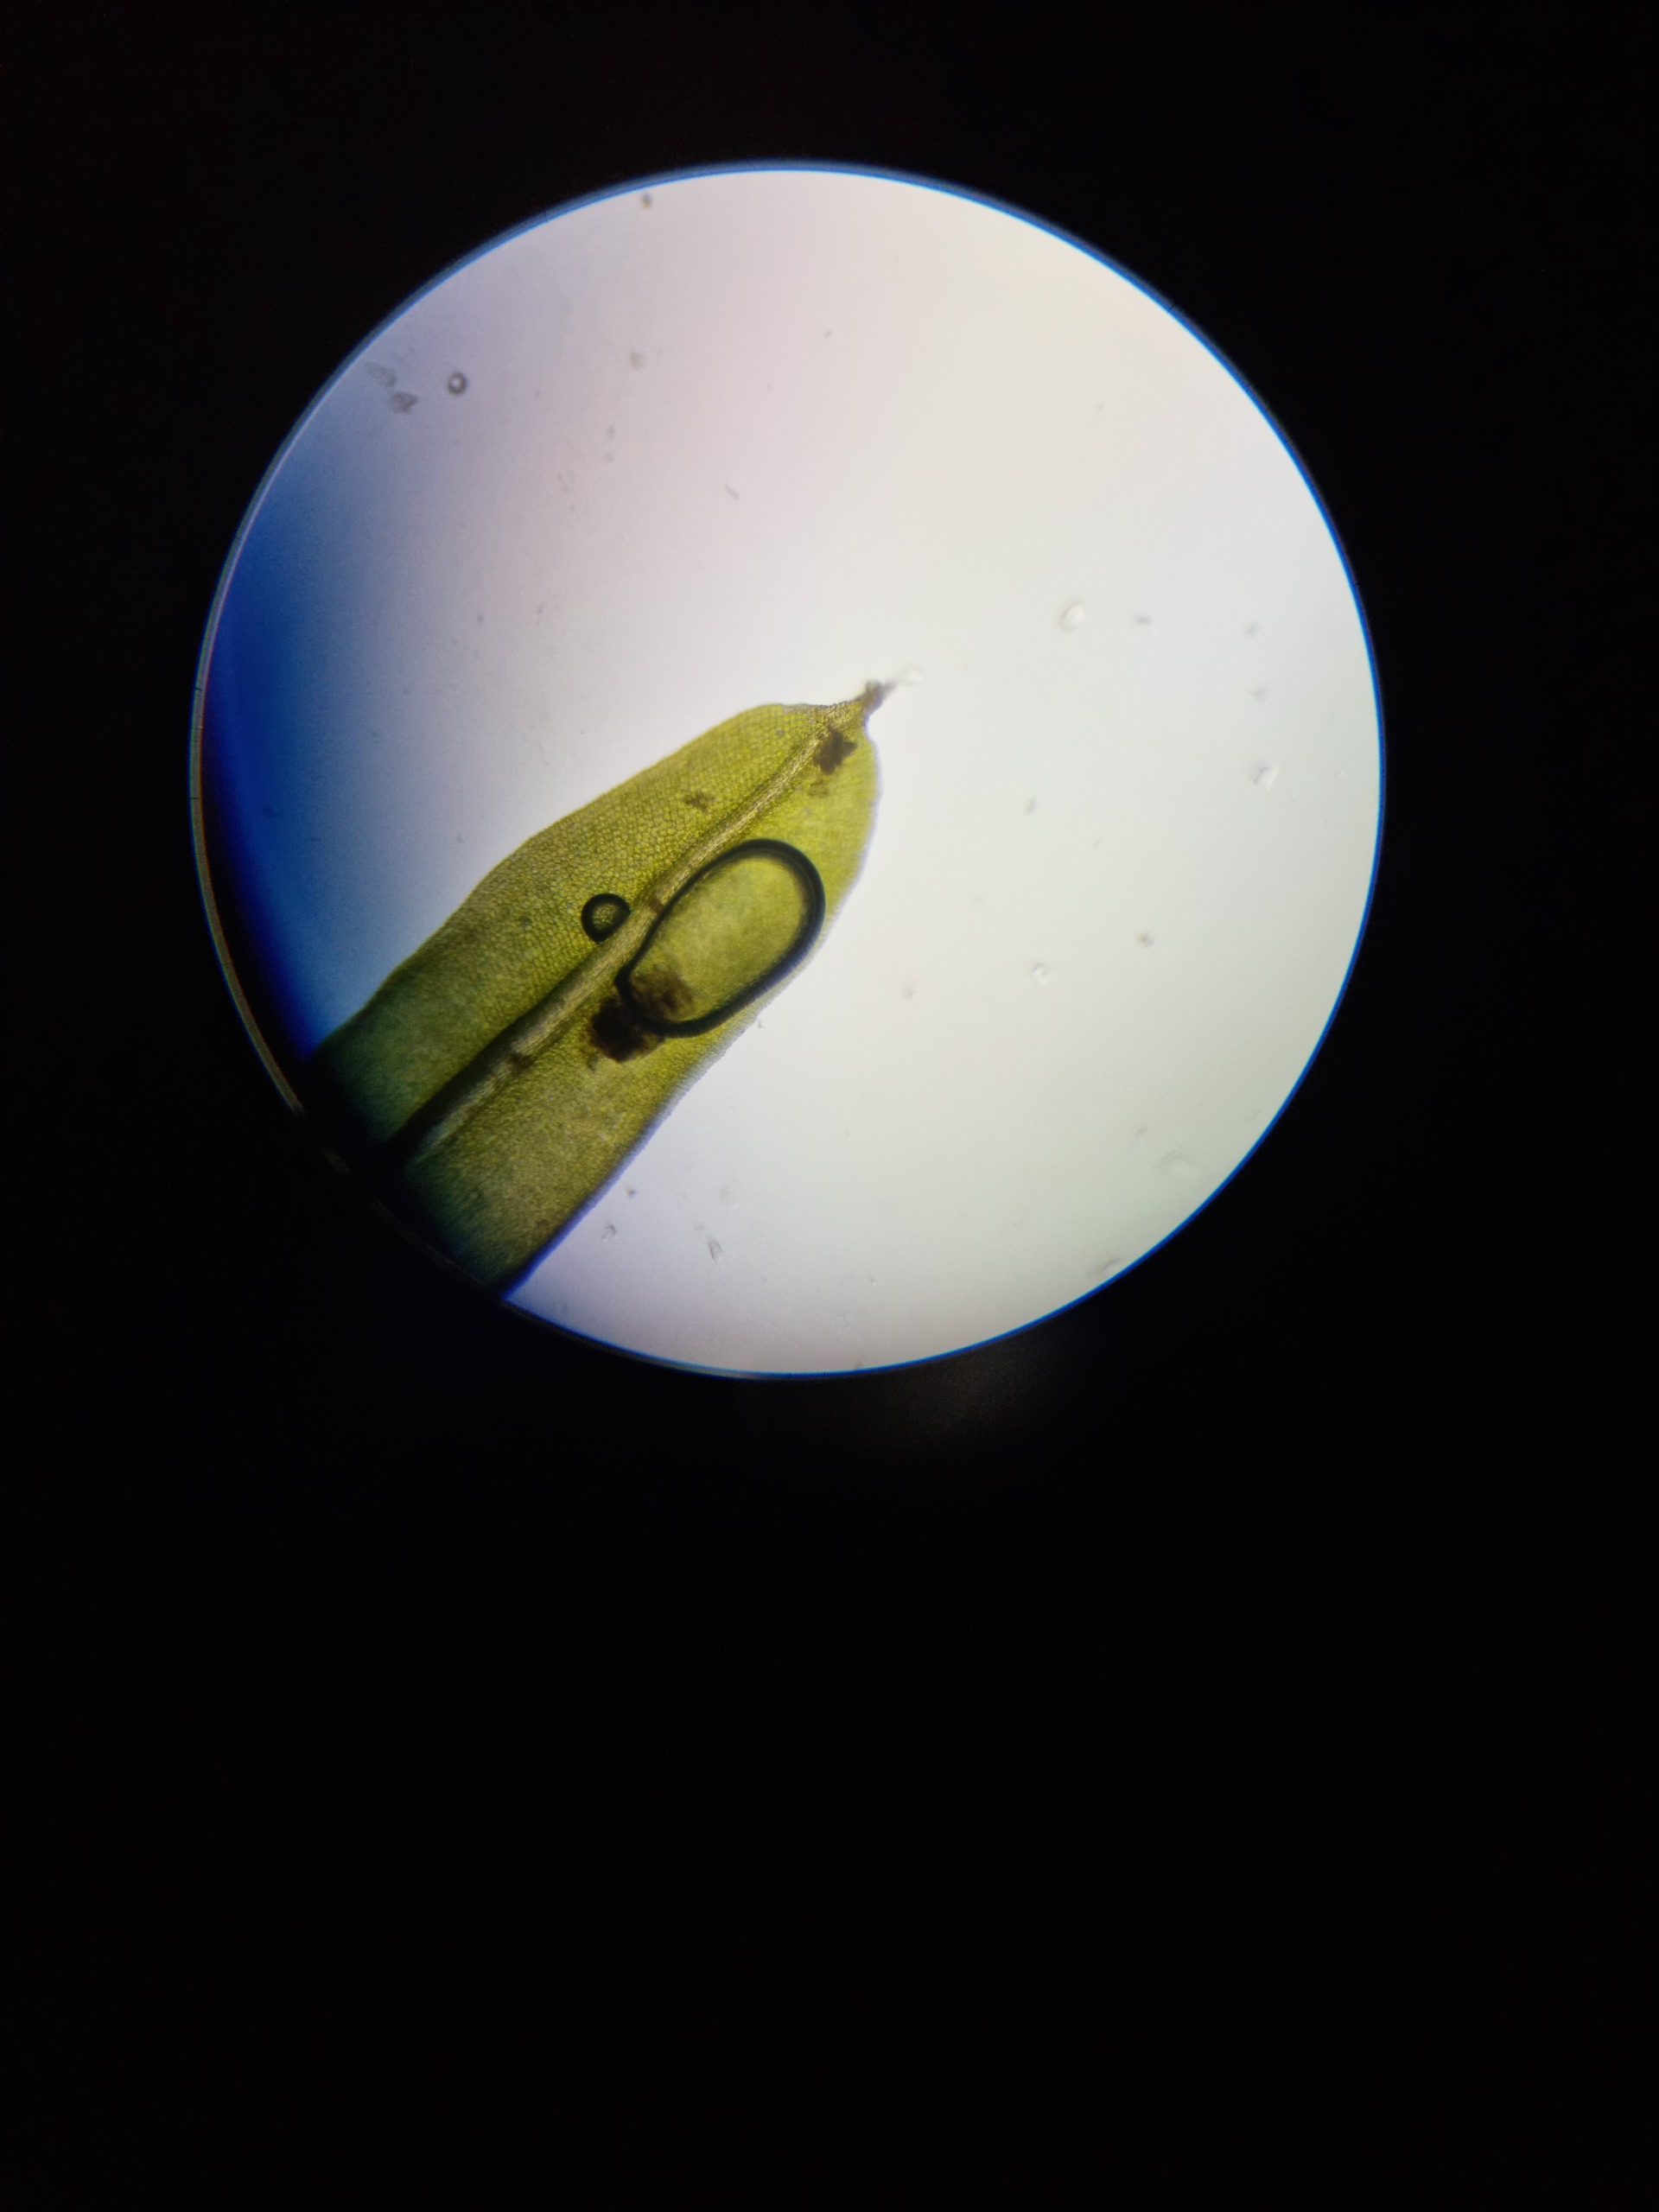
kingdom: Plantae
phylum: Bryophyta
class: Bryopsida
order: Pottiales
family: Pottiaceae
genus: Barbula
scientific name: Barbula unguiculata
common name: Almindelig skægtand
